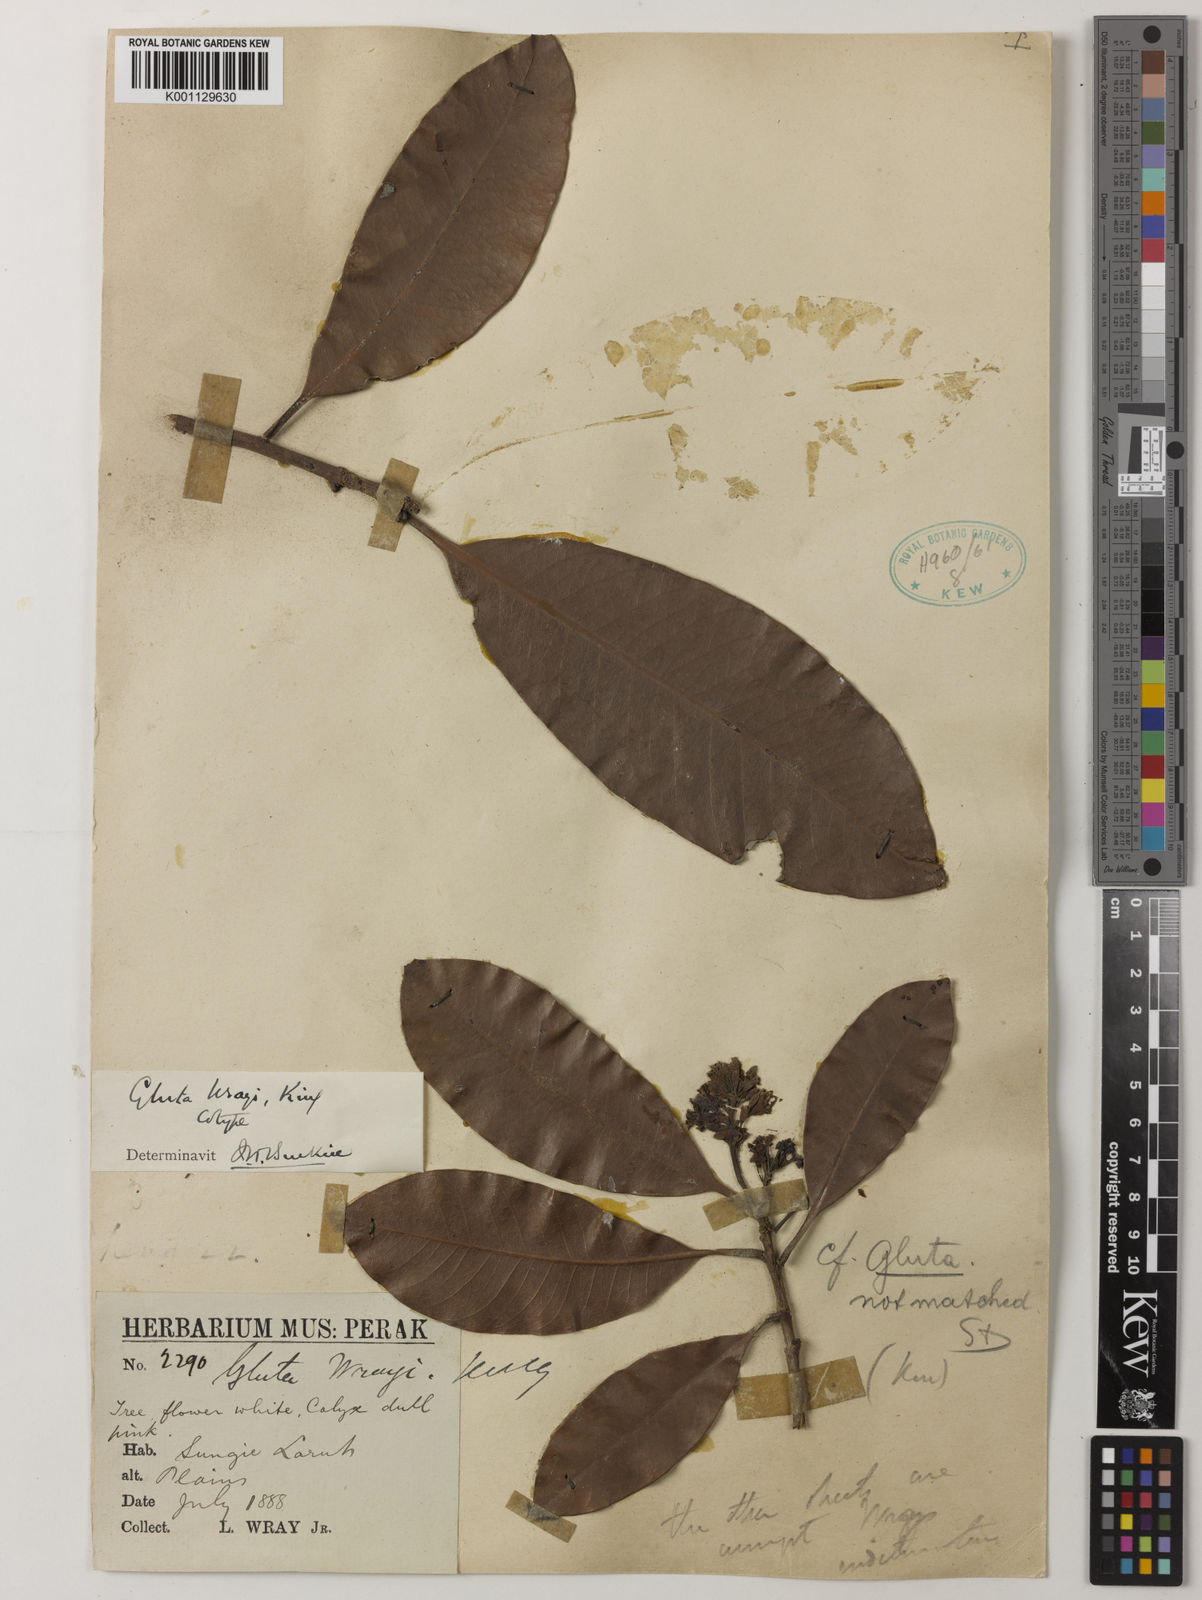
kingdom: Plantae
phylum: Tracheophyta
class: Magnoliopsida
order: Sapindales
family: Anacardiaceae
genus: Gluta
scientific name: Gluta wrayi
